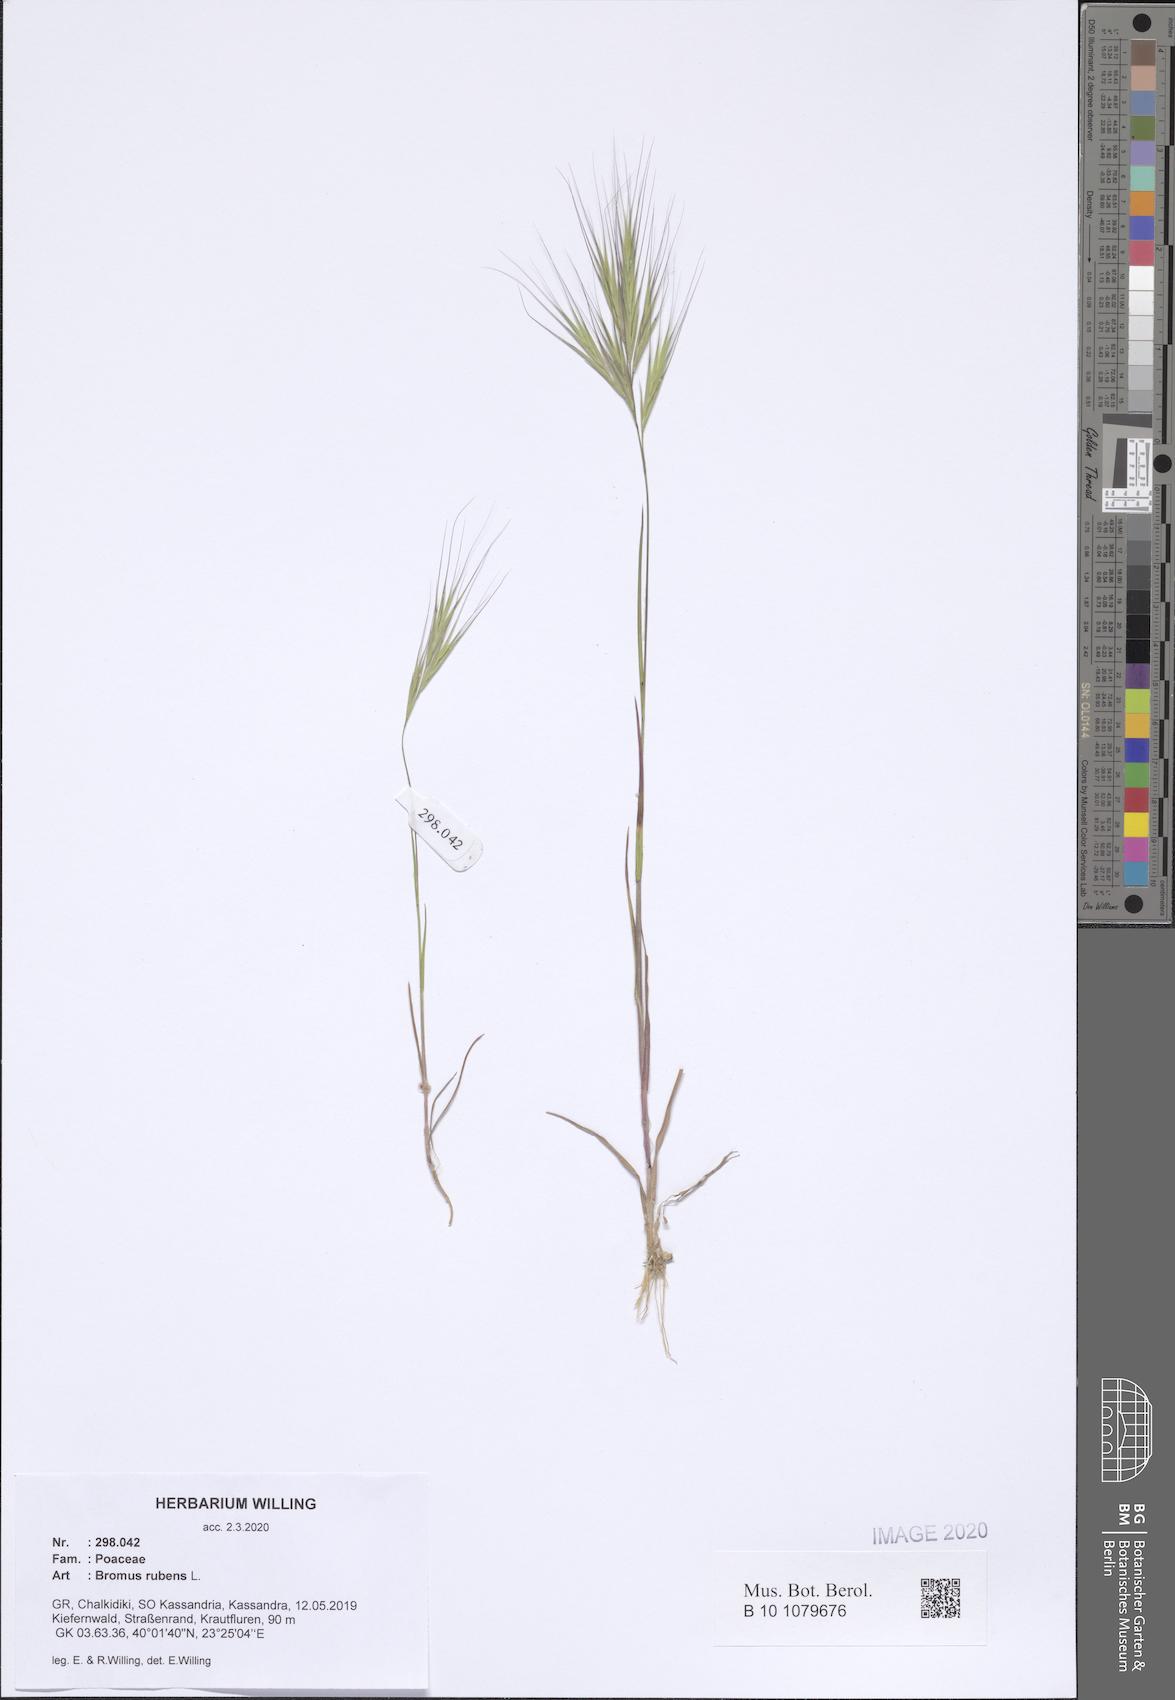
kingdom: Plantae
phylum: Tracheophyta
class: Liliopsida
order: Poales
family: Poaceae
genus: Bromus
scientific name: Bromus rubens
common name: Red brome
